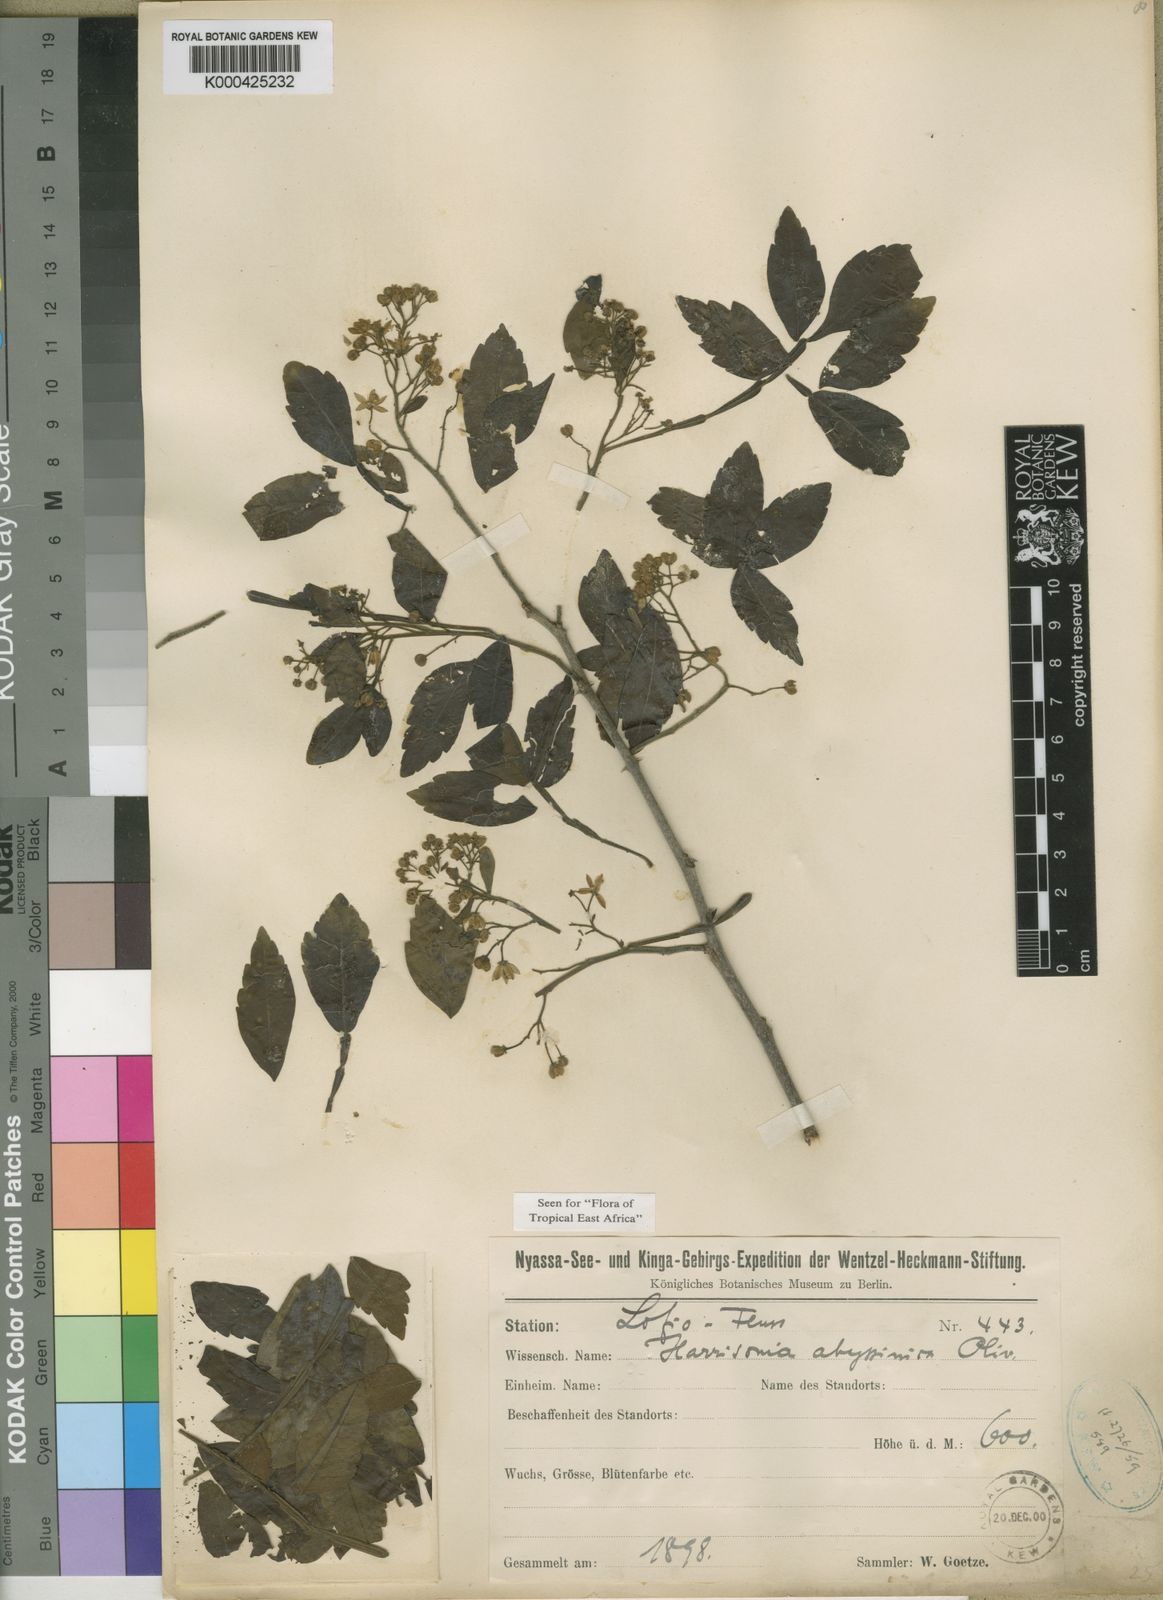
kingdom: Plantae
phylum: Tracheophyta
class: Magnoliopsida
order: Sapindales
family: Rutaceae
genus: Harrisonia
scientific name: Harrisonia abyssinica
